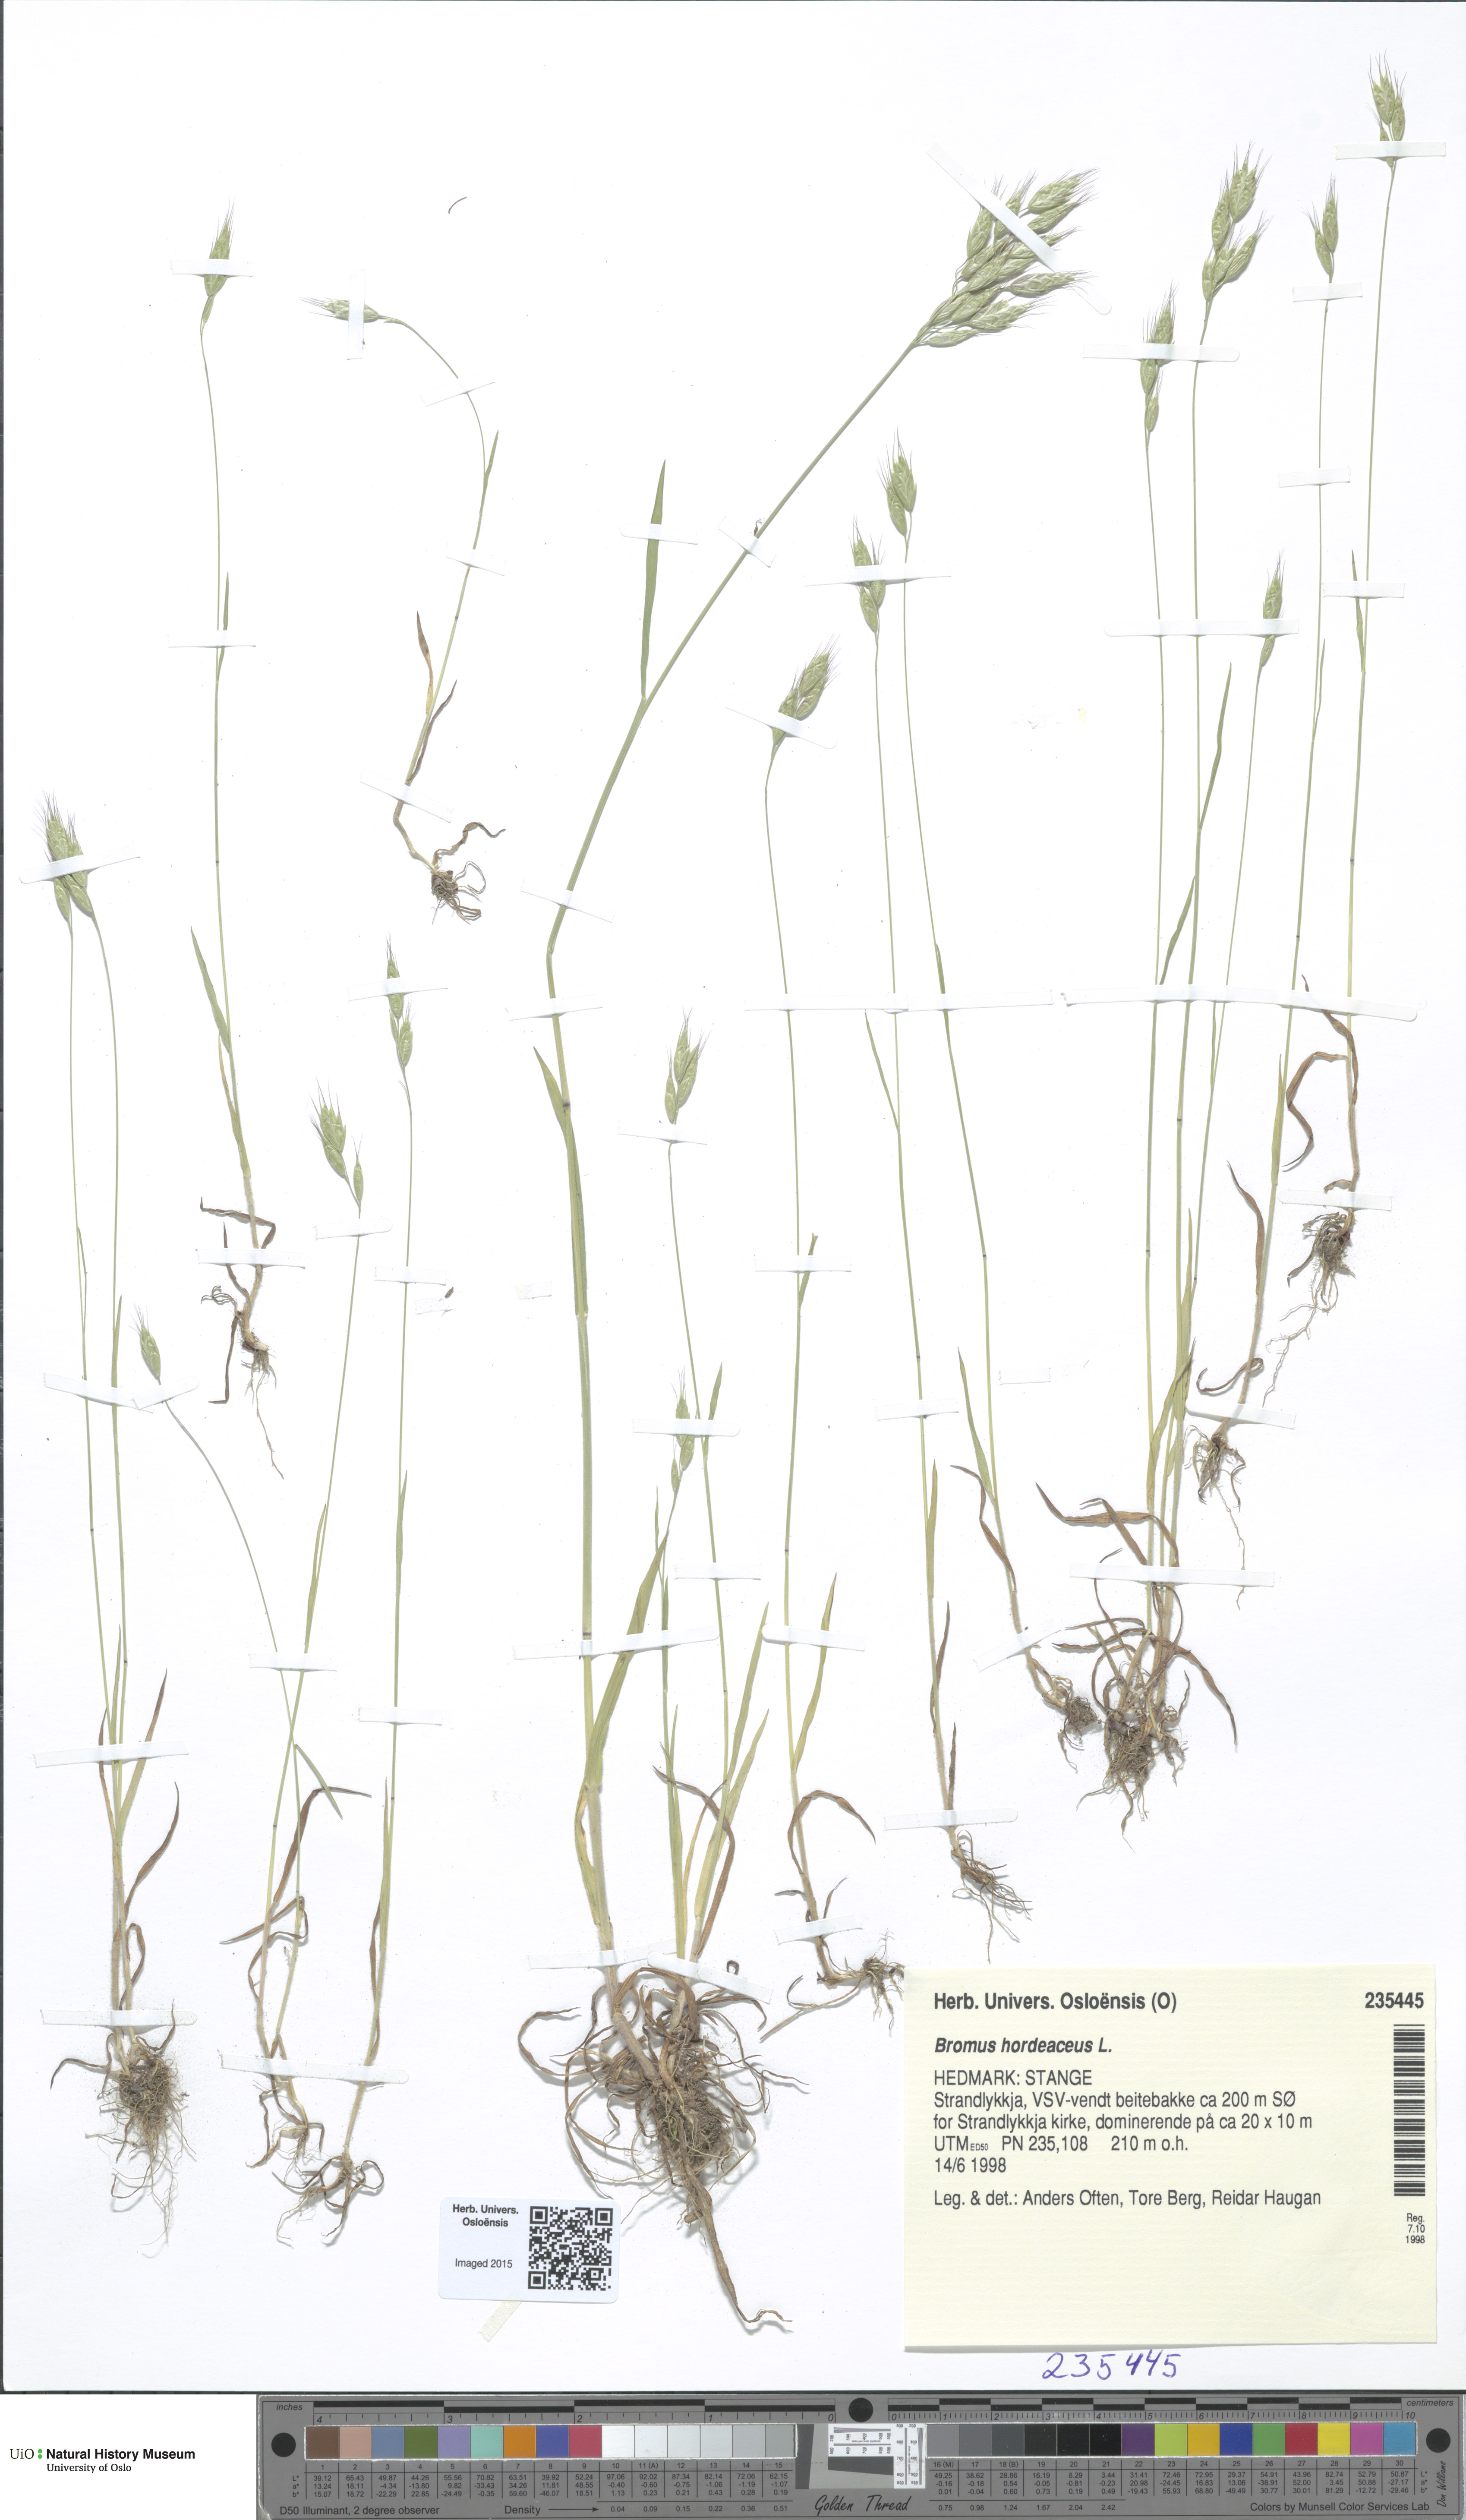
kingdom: Plantae
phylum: Tracheophyta
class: Liliopsida
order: Poales
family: Poaceae
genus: Bromus
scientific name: Bromus hordeaceus
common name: Soft brome
